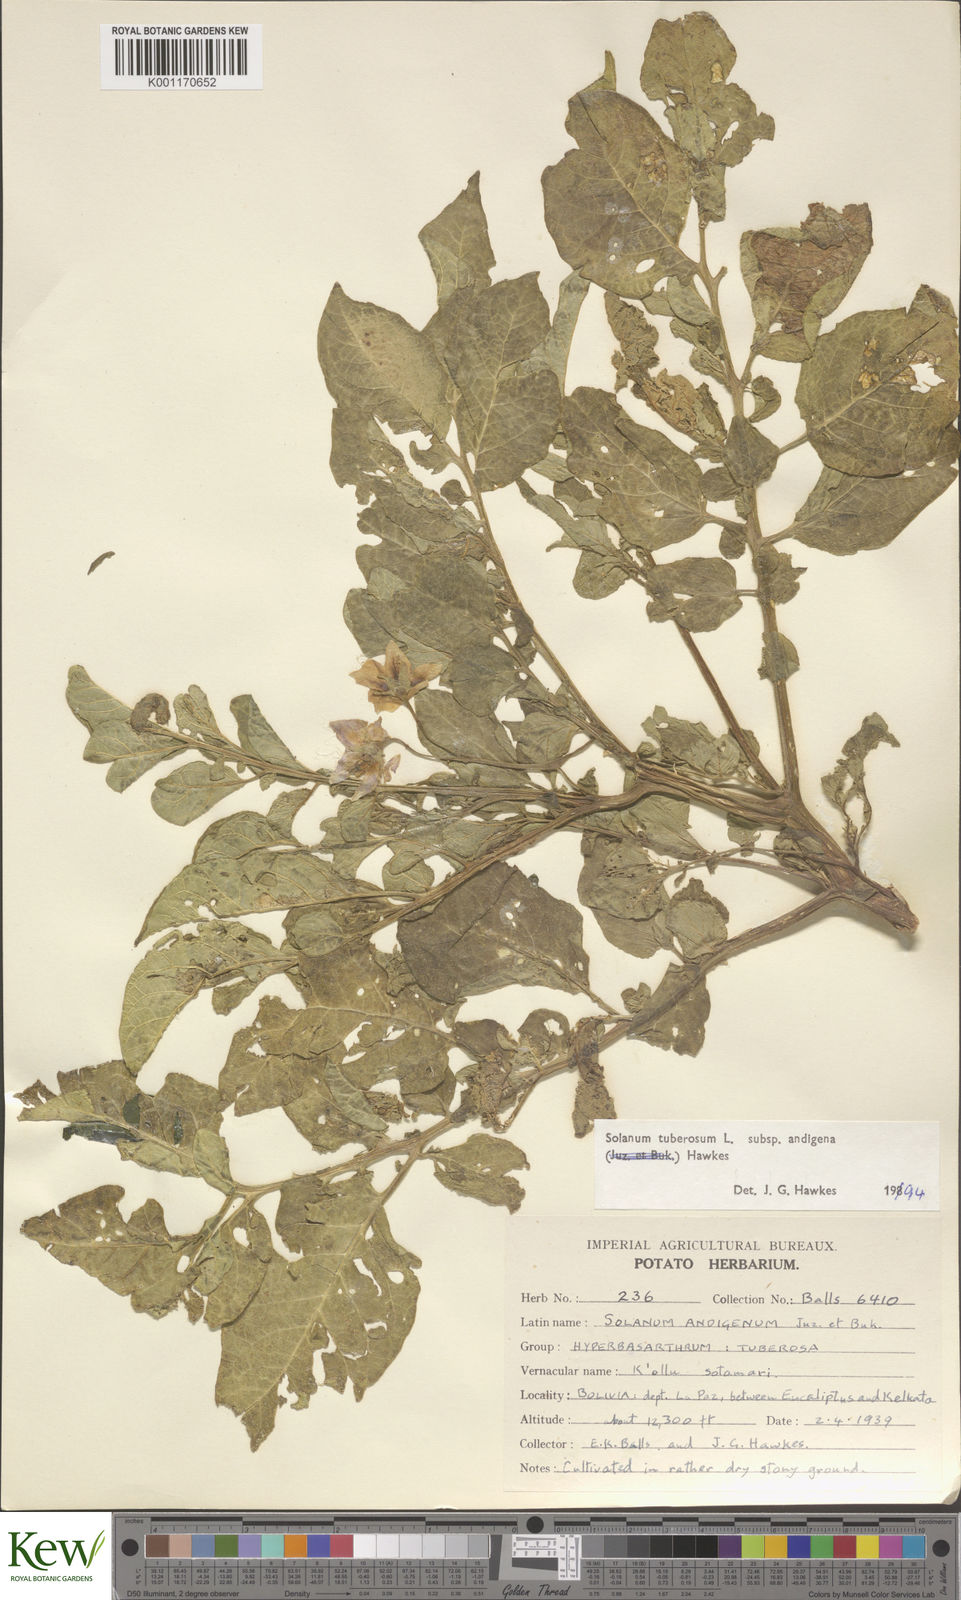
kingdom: Plantae
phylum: Tracheophyta
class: Magnoliopsida
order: Solanales
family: Solanaceae
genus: Solanum
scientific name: Solanum tuberosum
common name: Potato
